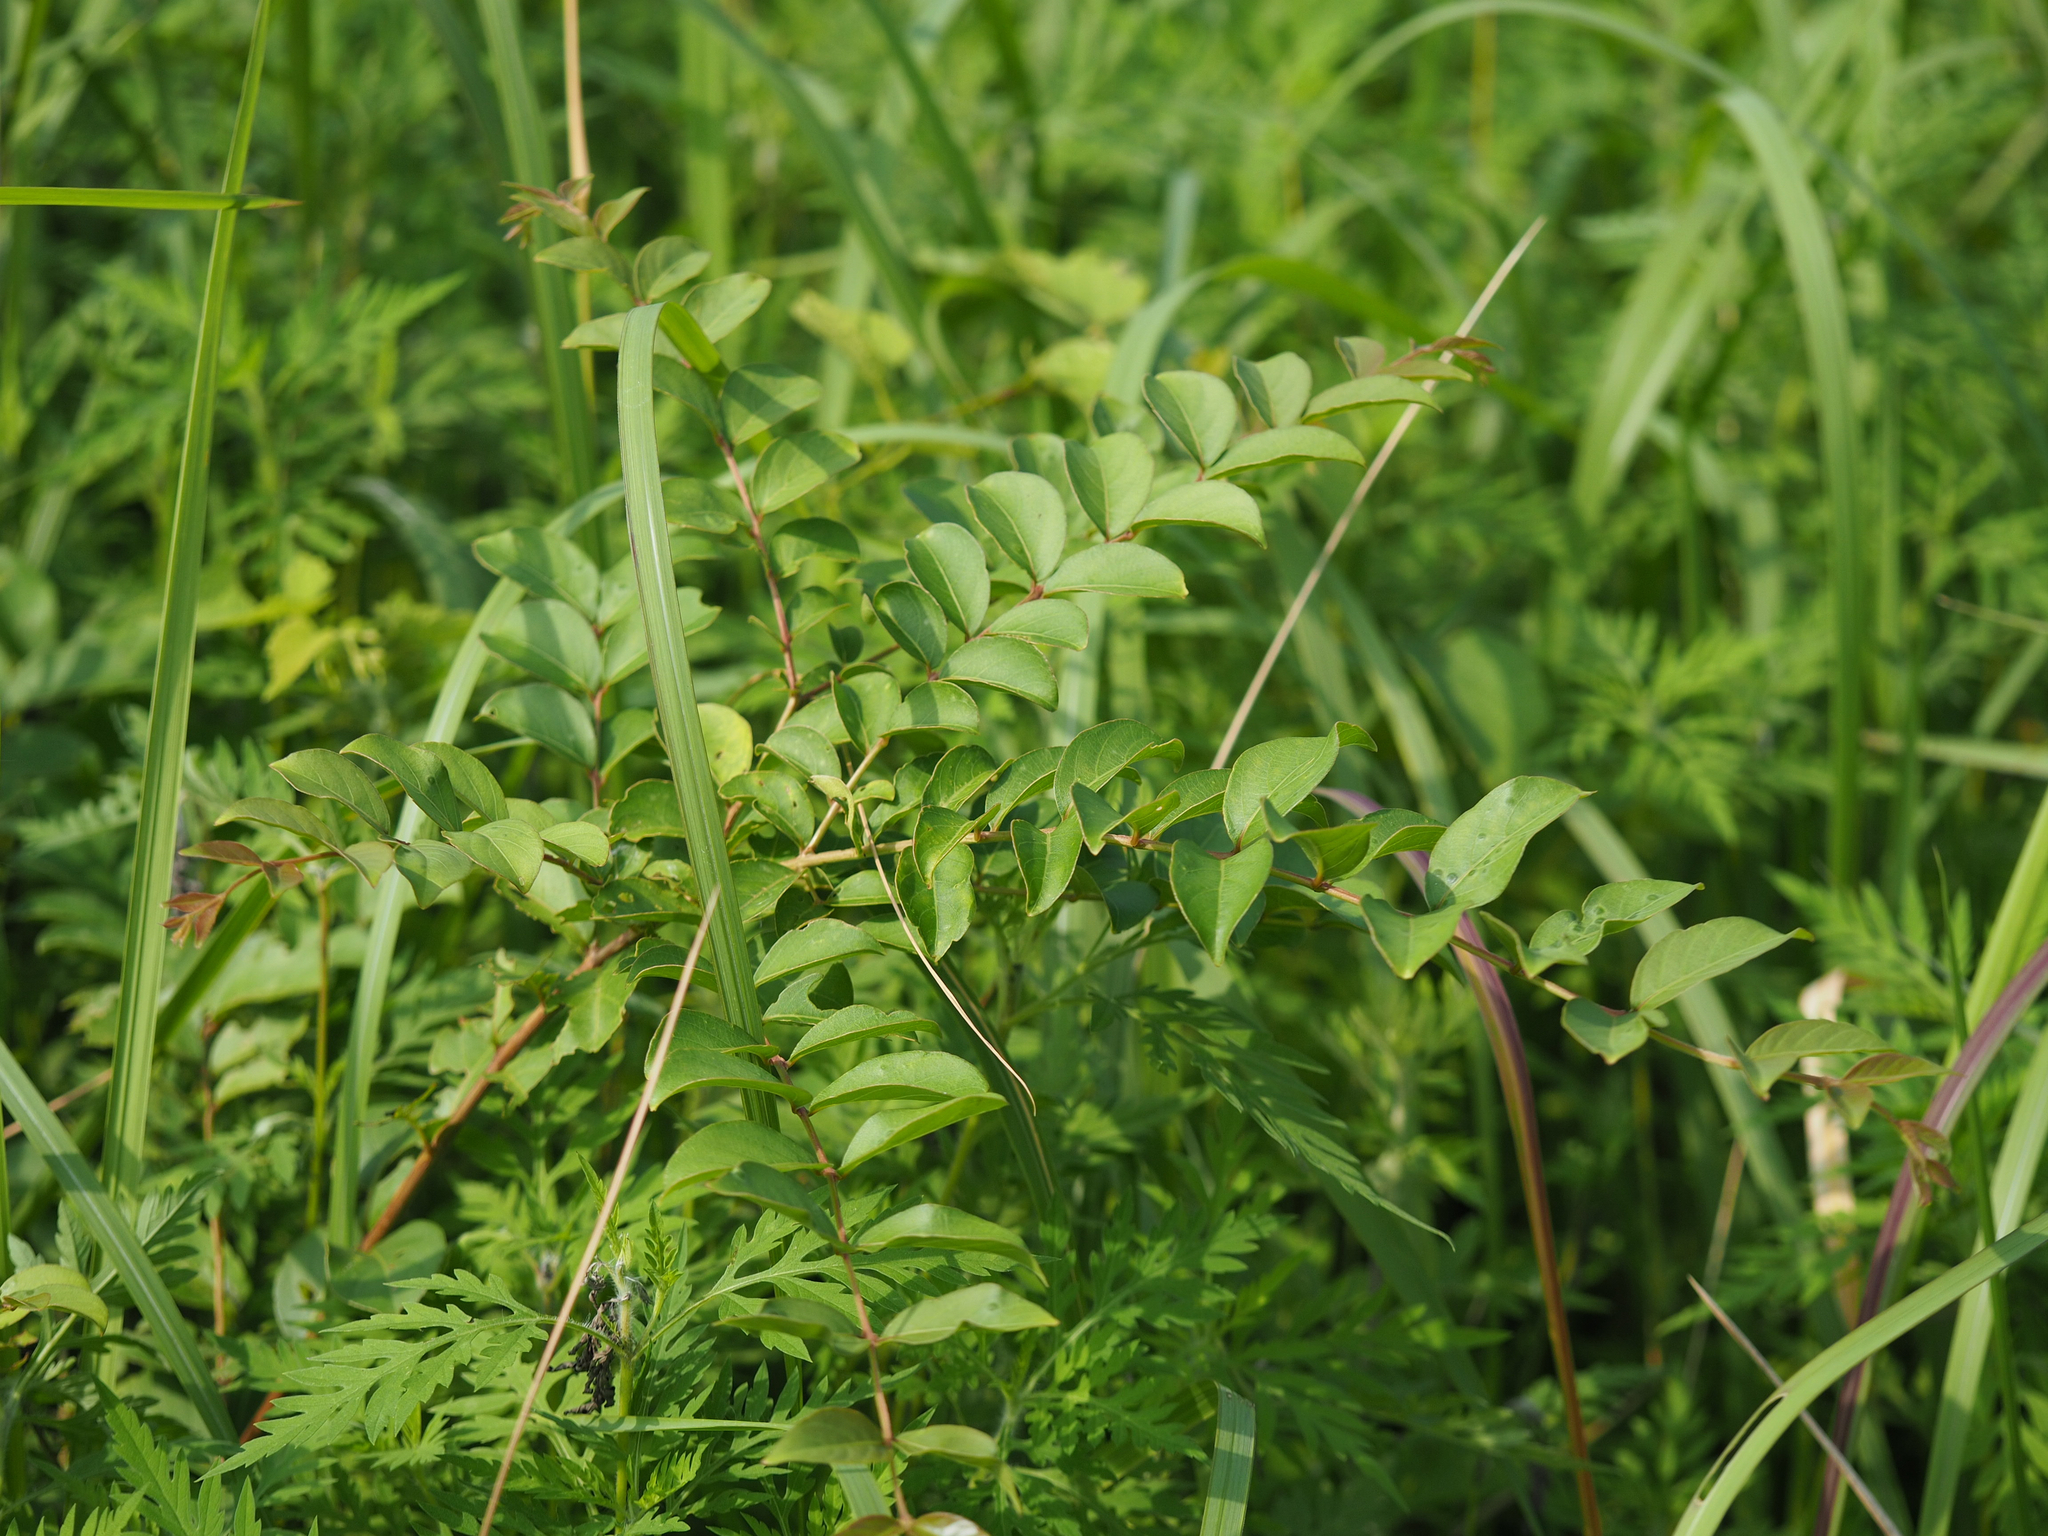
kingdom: Plantae
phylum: Tracheophyta
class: Magnoliopsida
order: Myrtales
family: Lythraceae
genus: Lagerstroemia
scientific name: Lagerstroemia subcostata
